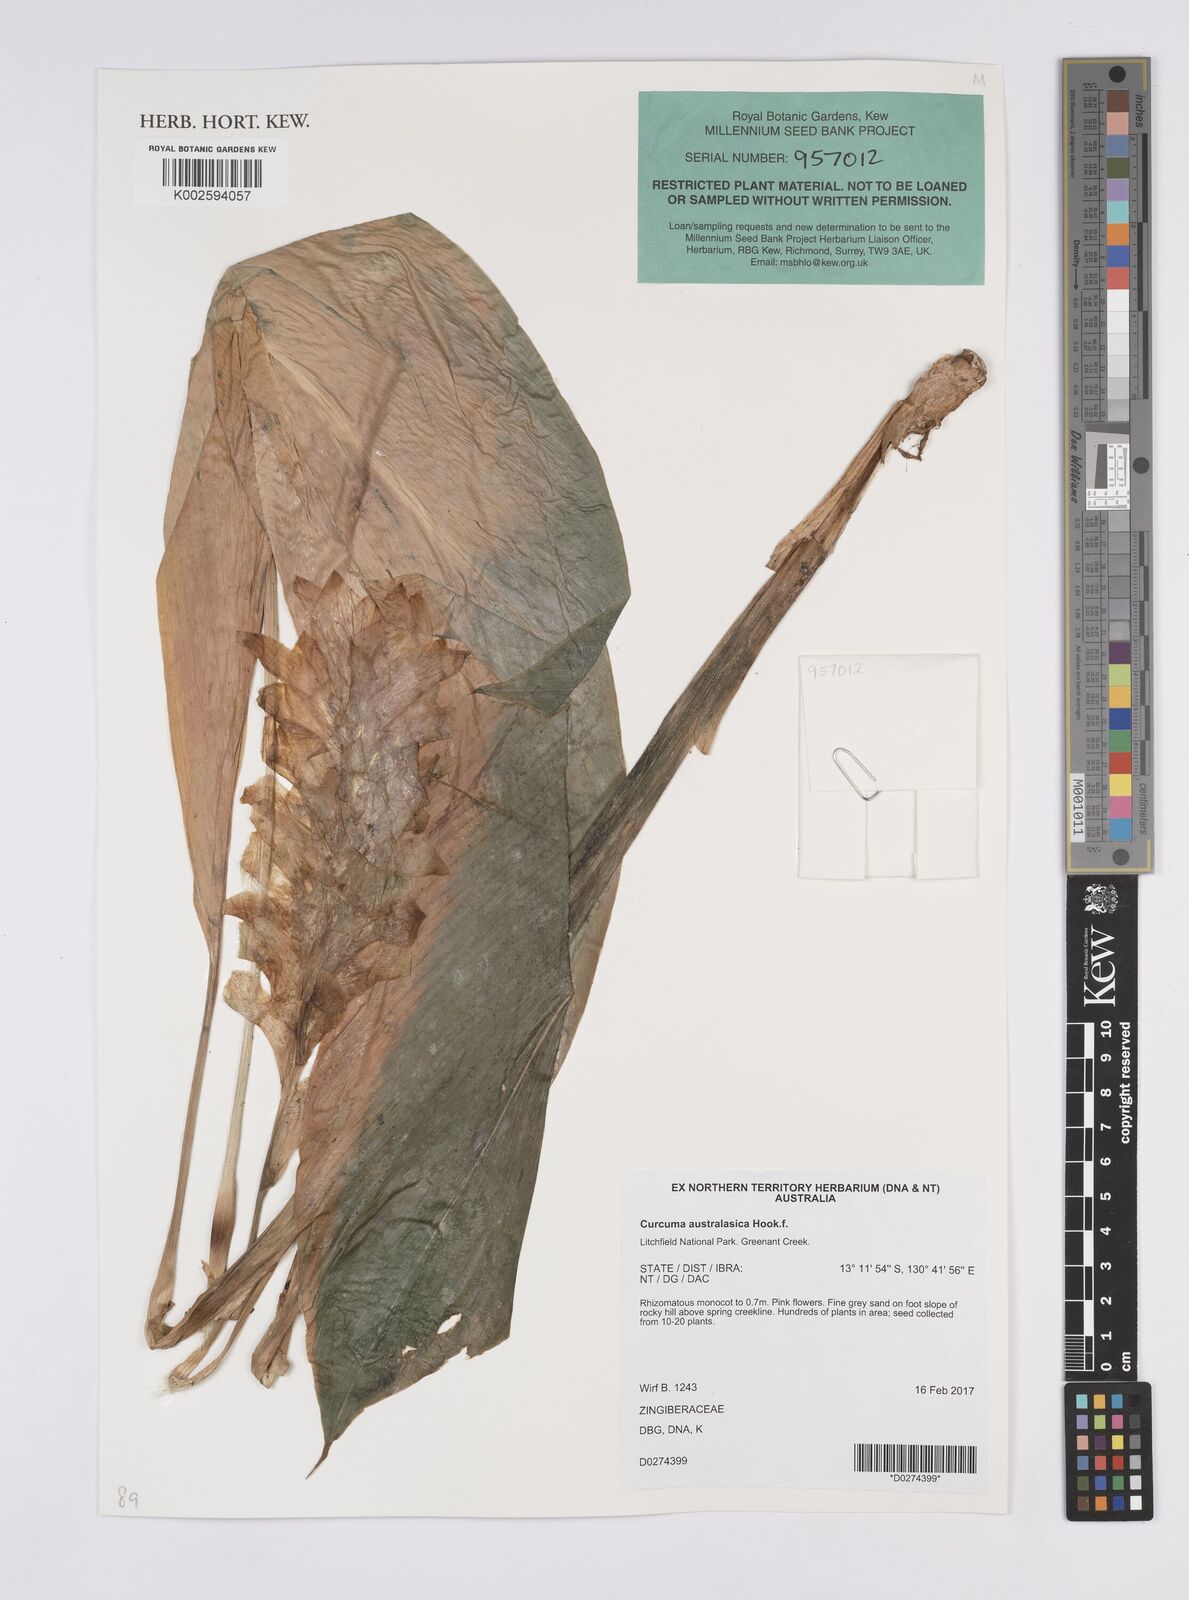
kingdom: Plantae
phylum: Tracheophyta
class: Liliopsida
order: Zingiberales
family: Zingiberaceae
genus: Curcuma
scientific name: Curcuma australasica
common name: Australian wild turmeric
